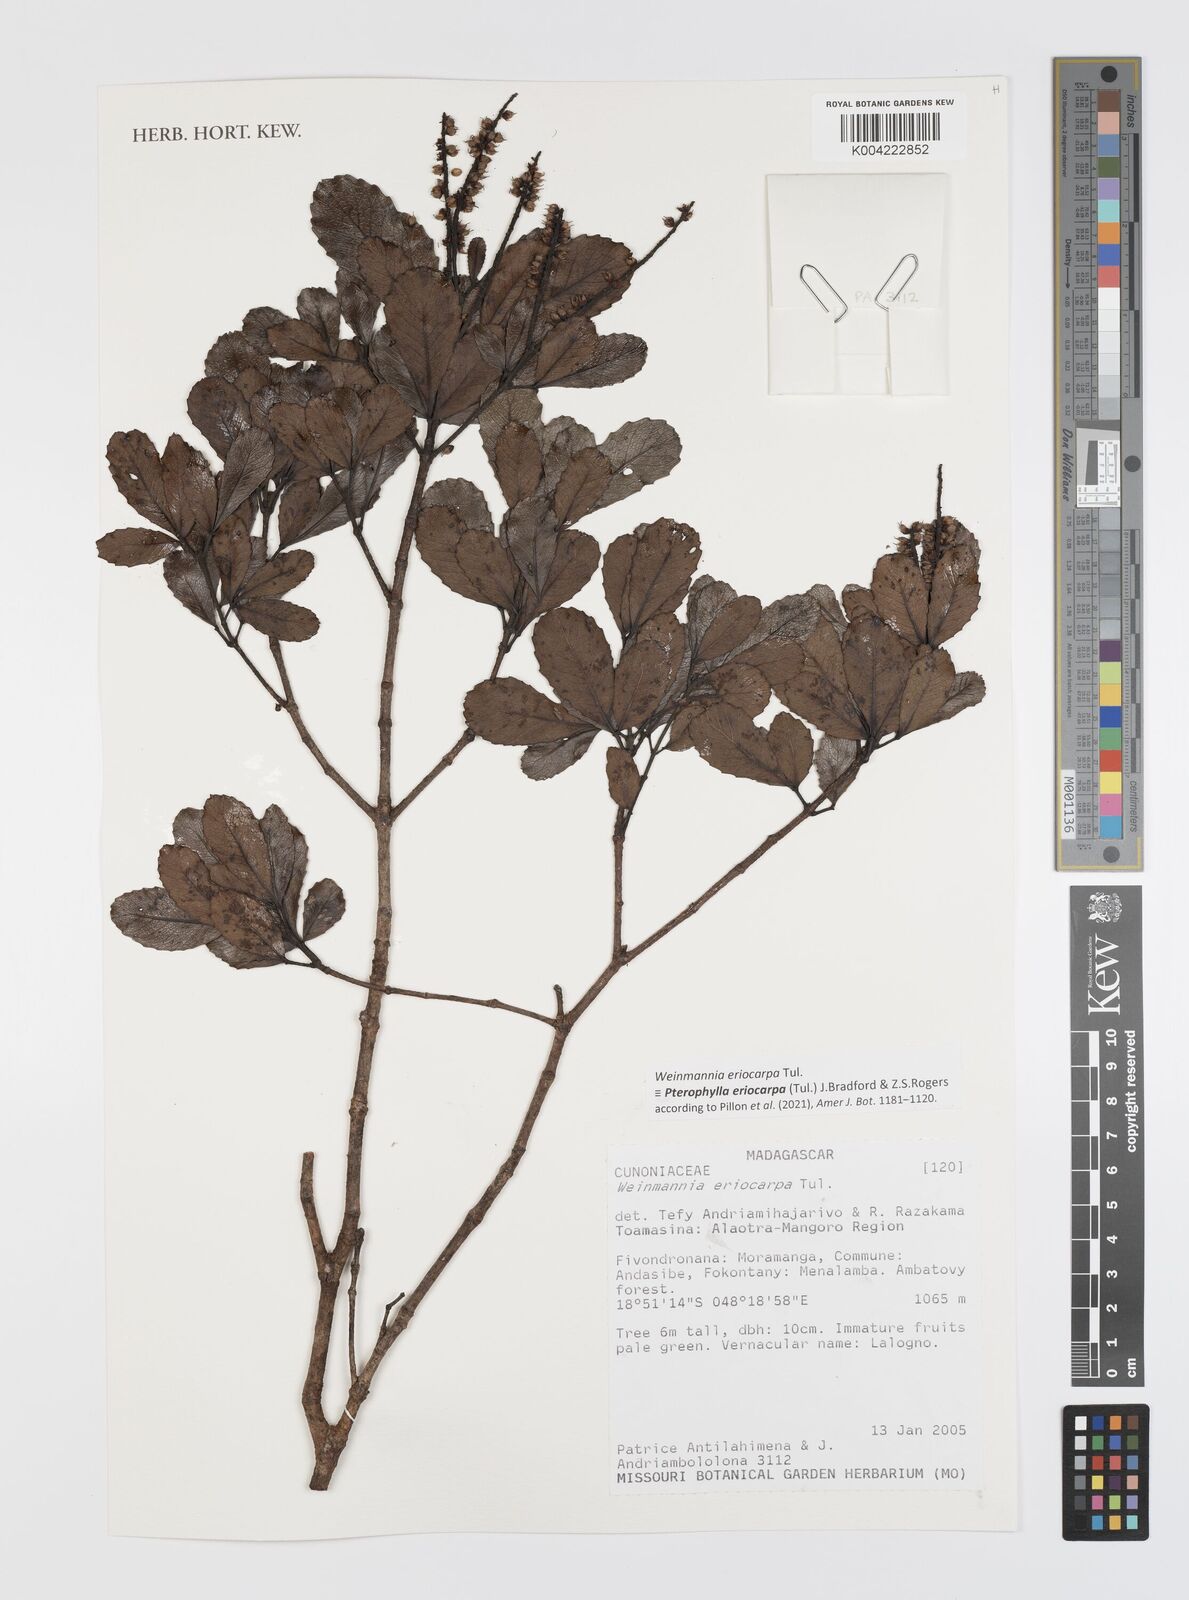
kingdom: Plantae
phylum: Tracheophyta
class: Magnoliopsida
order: Oxalidales
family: Cunoniaceae
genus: Pterophylla
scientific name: Pterophylla eriocarpa
